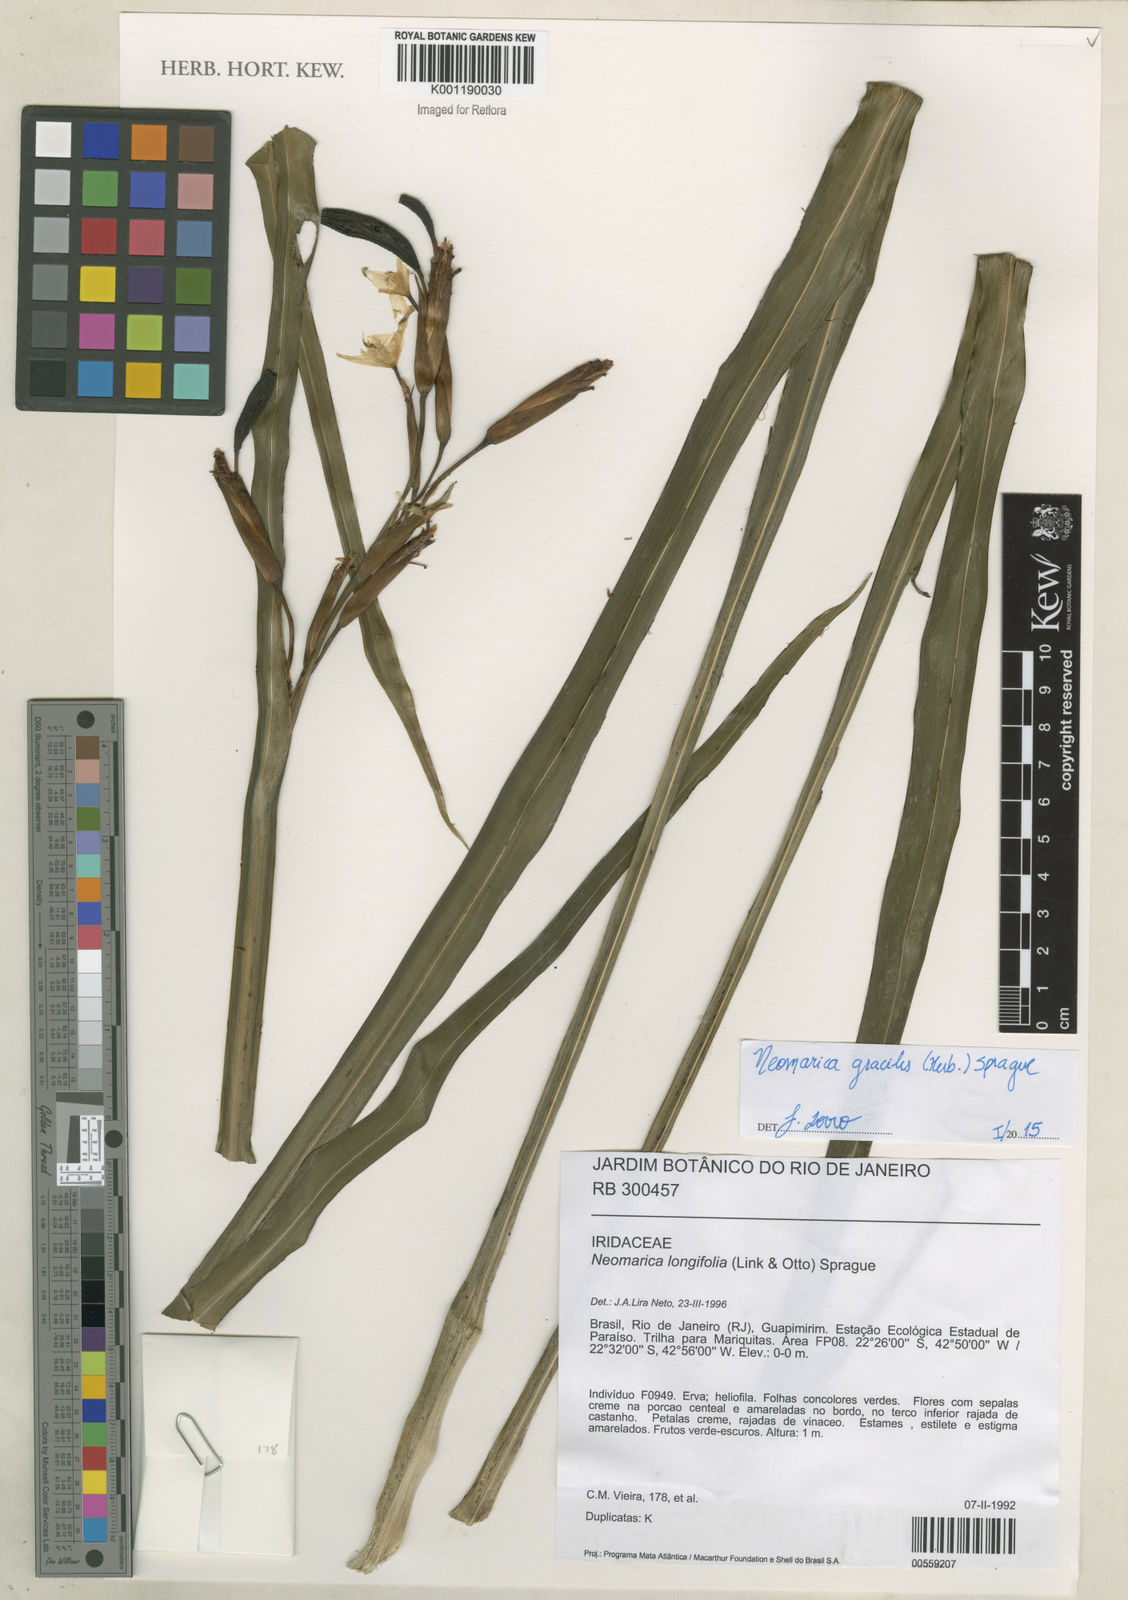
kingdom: Plantae
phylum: Tracheophyta
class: Liliopsida
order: Asparagales
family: Iridaceae
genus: Trimezia
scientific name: Trimezia gracilis
